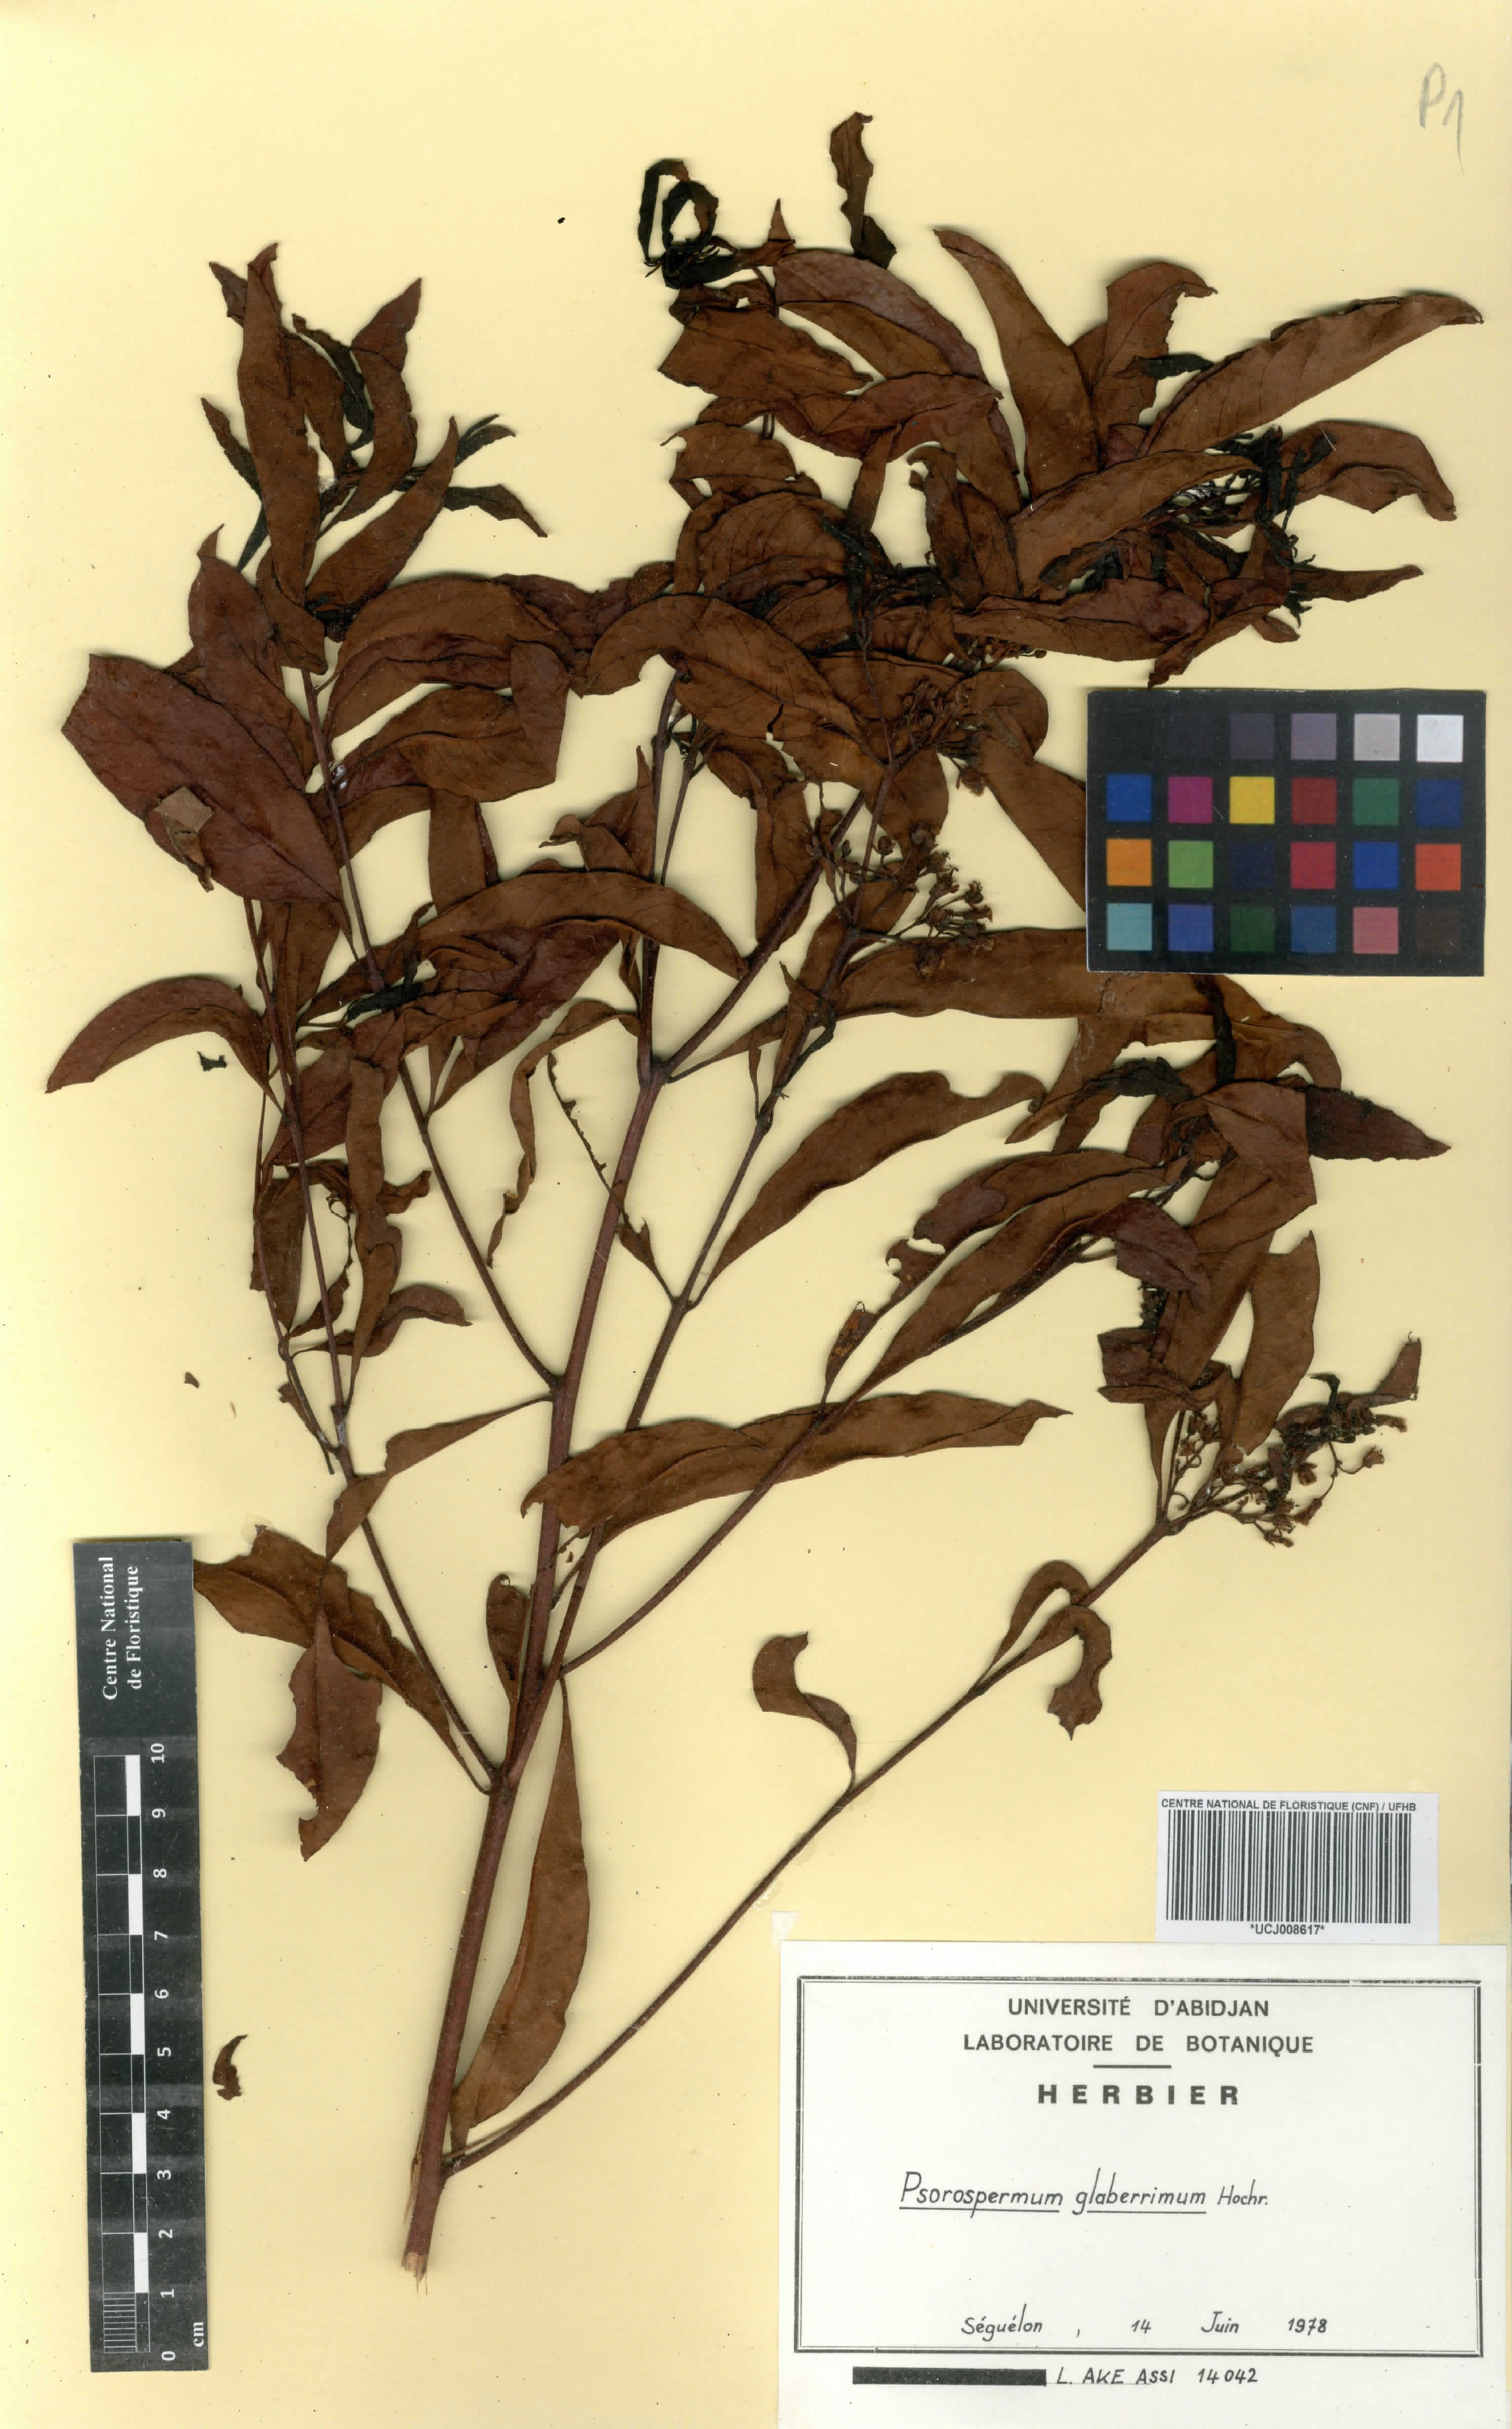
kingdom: Plantae
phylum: Tracheophyta
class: Magnoliopsida
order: Malpighiales
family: Hypericaceae
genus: Psorospermum
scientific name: Psorospermum glaberrimum
